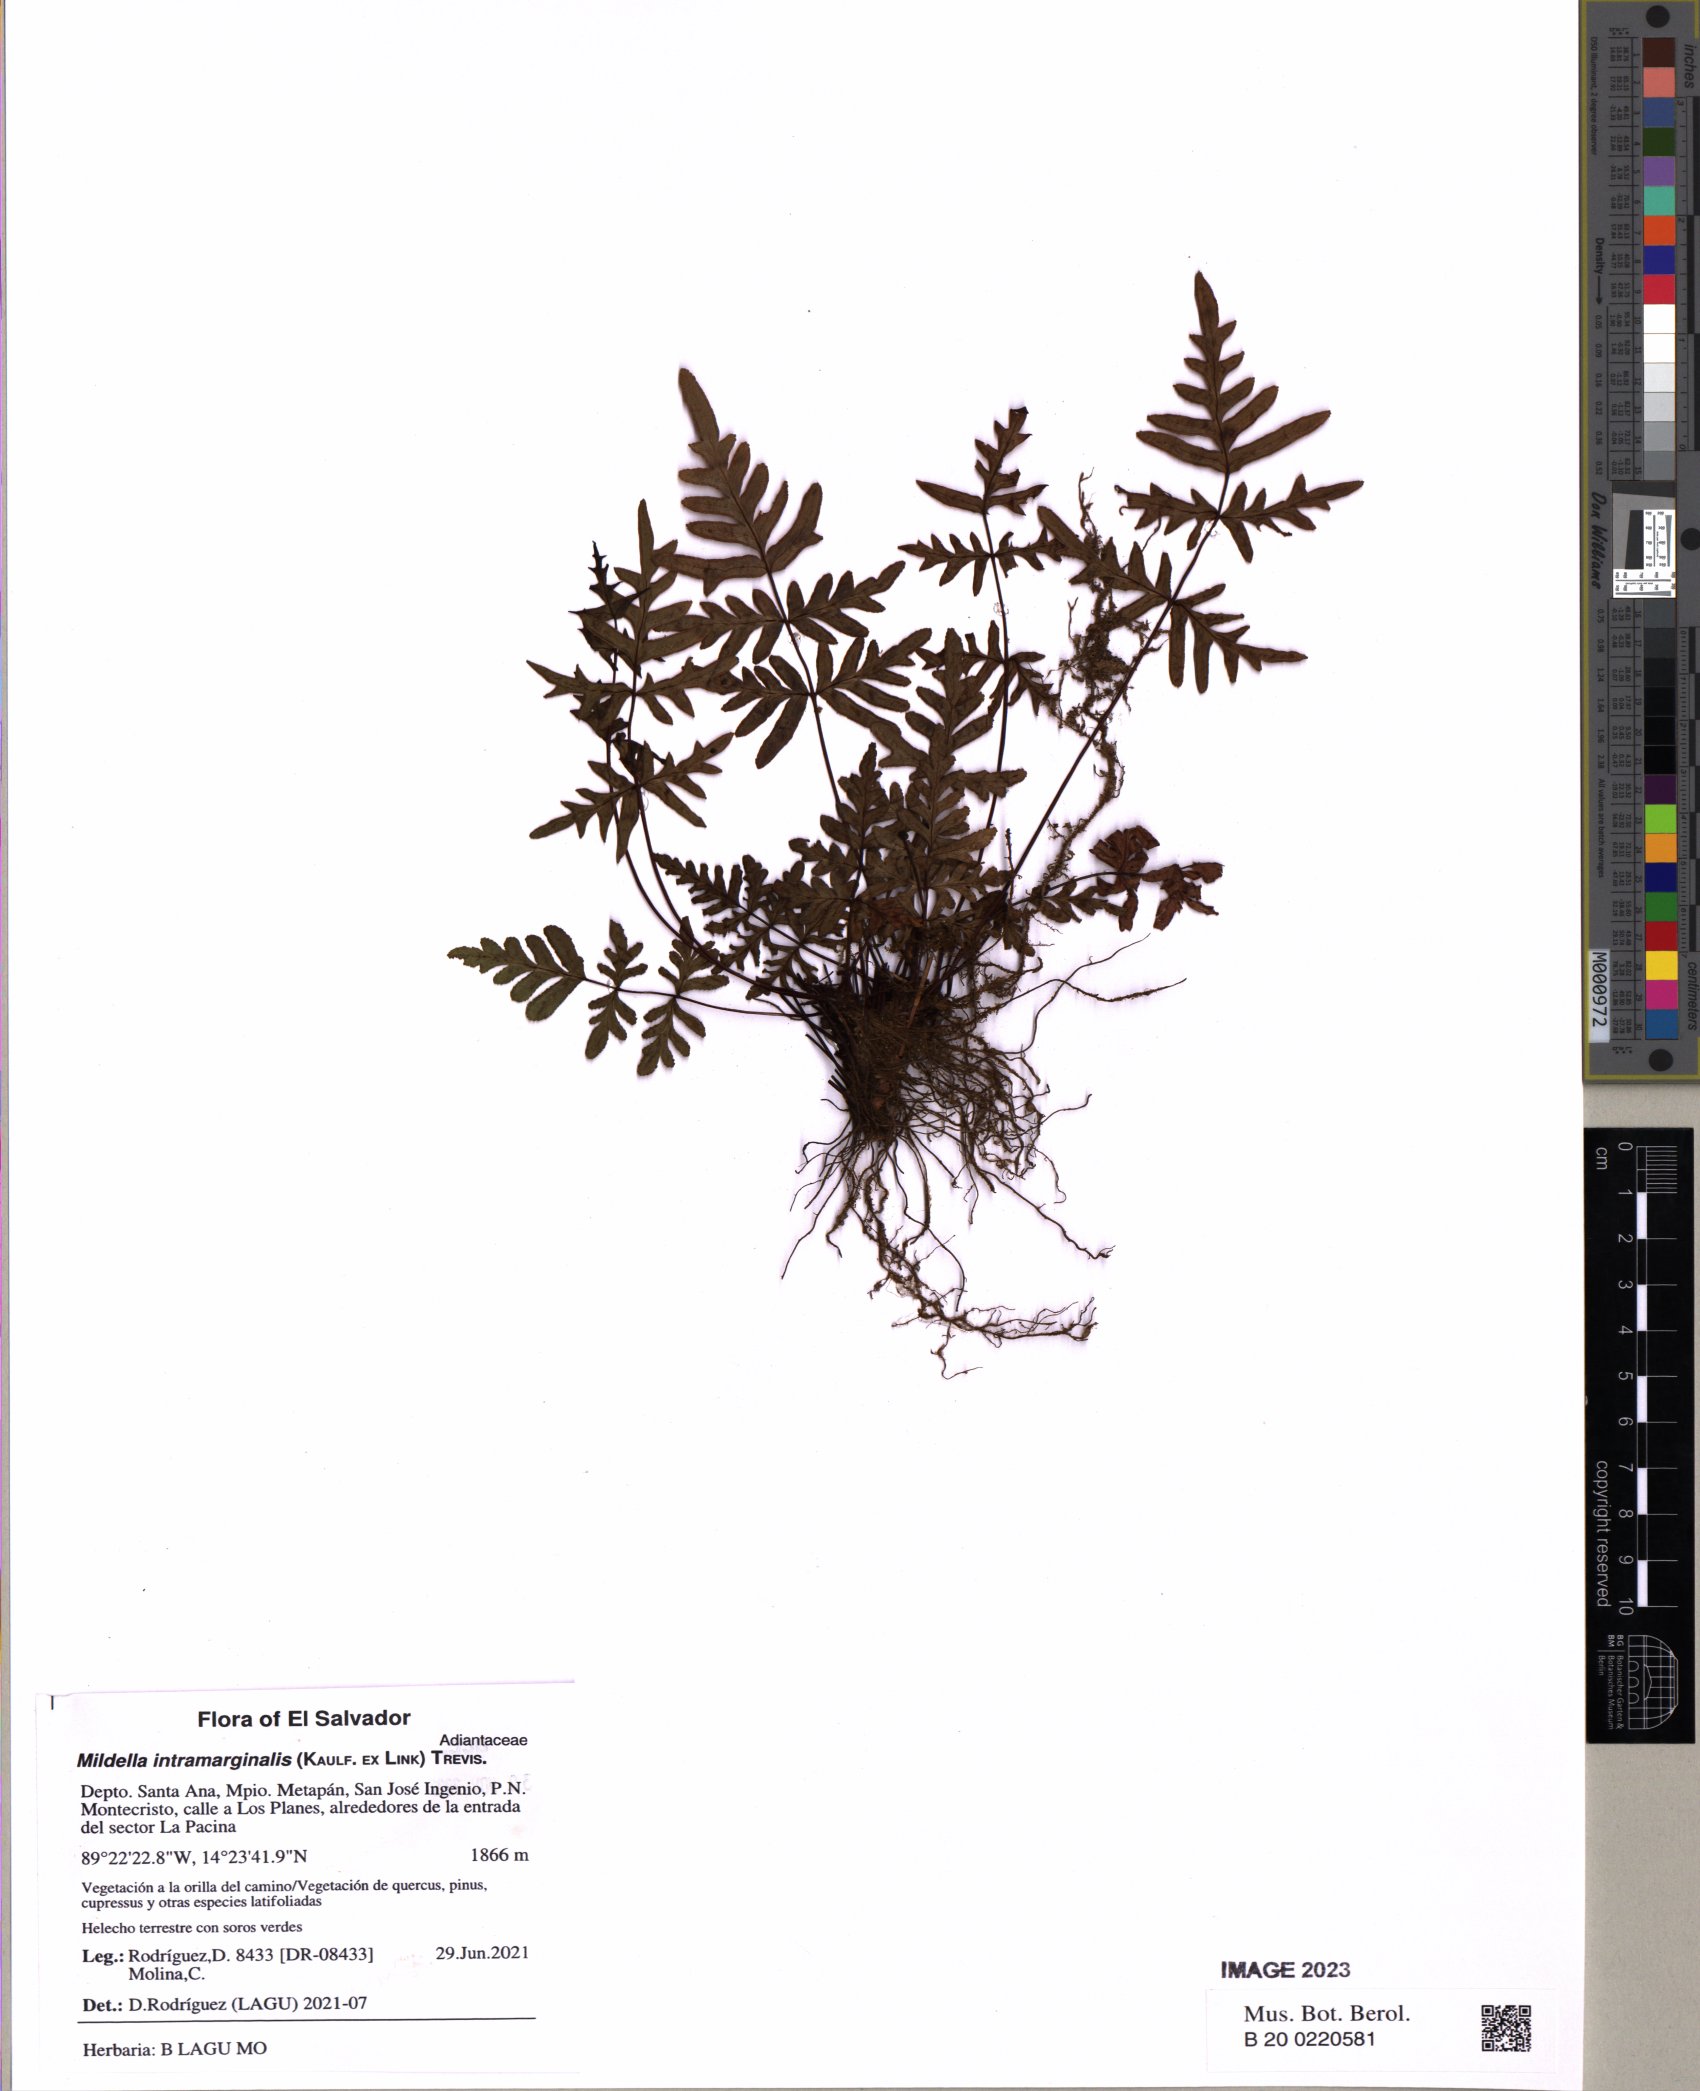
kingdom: Plantae
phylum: Tracheophyta
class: Polypodiopsida
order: Polypodiales
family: Pteridaceae
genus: Mildella
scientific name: Mildella intramarginalis
